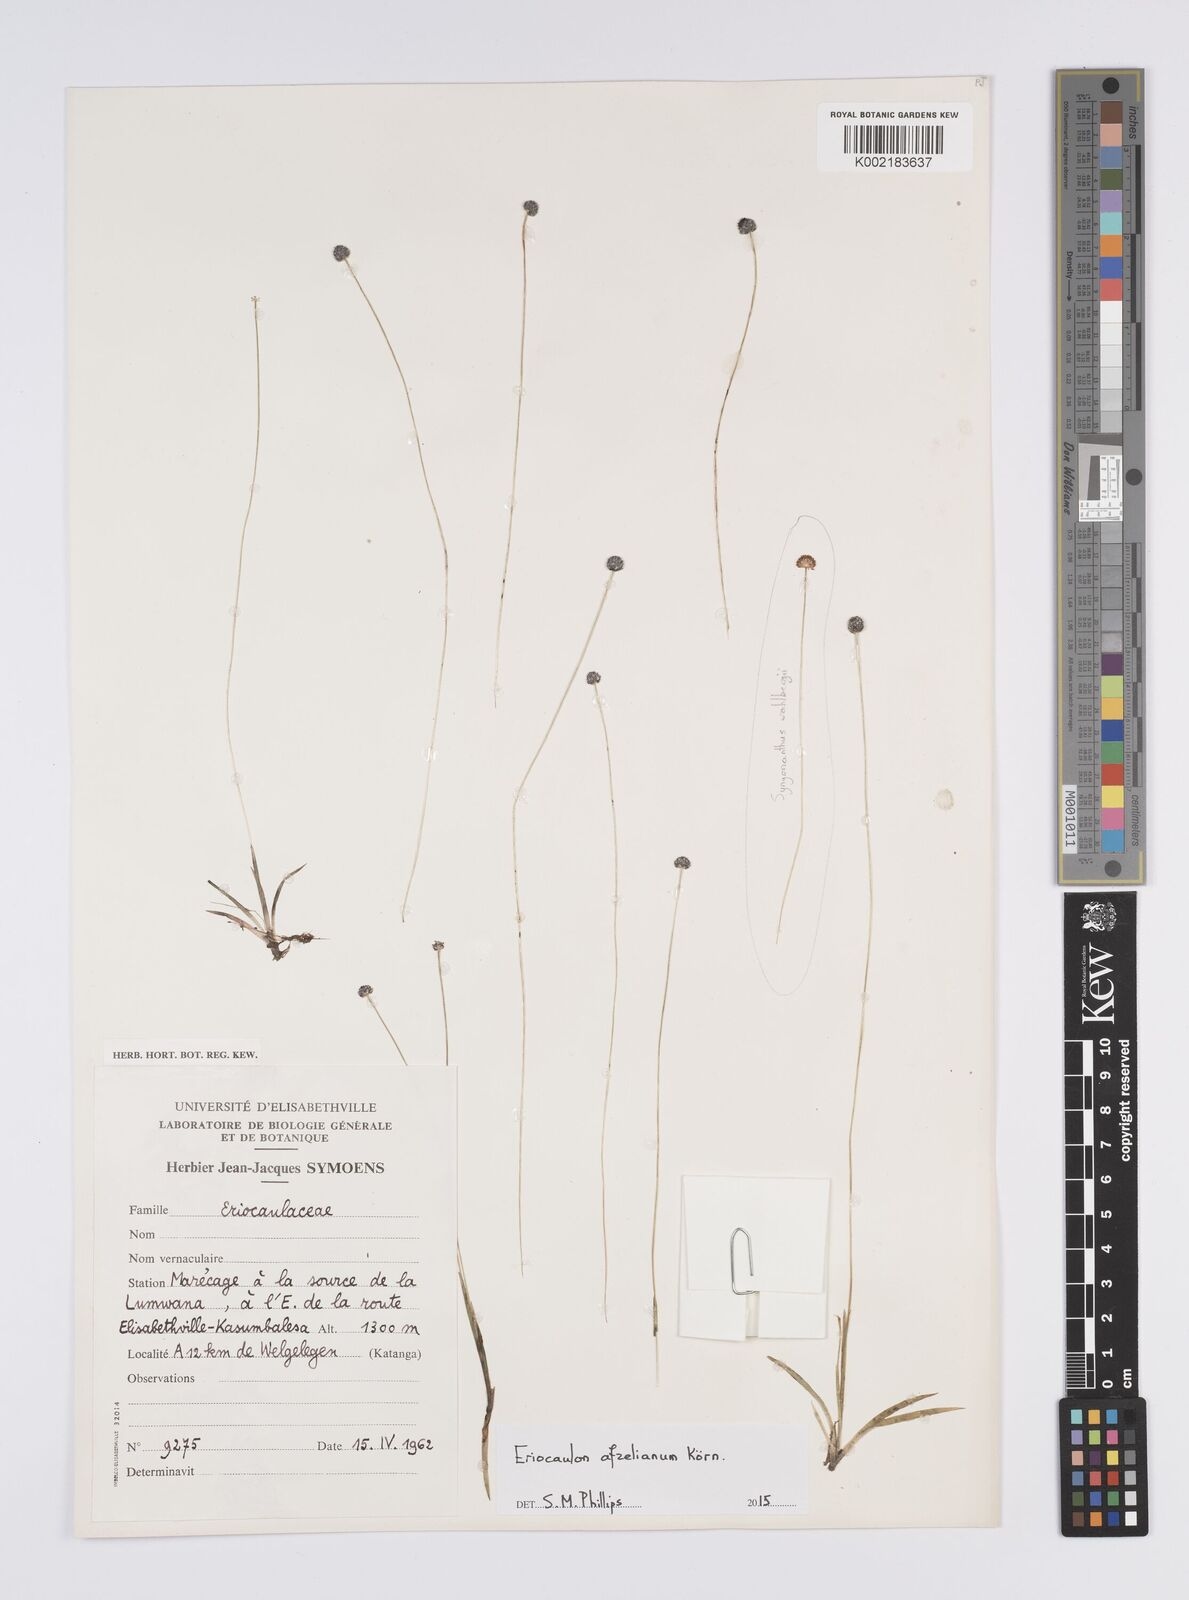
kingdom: Plantae
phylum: Tracheophyta
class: Liliopsida
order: Poales
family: Eriocaulaceae
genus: Eriocaulon
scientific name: Eriocaulon afzelianum
